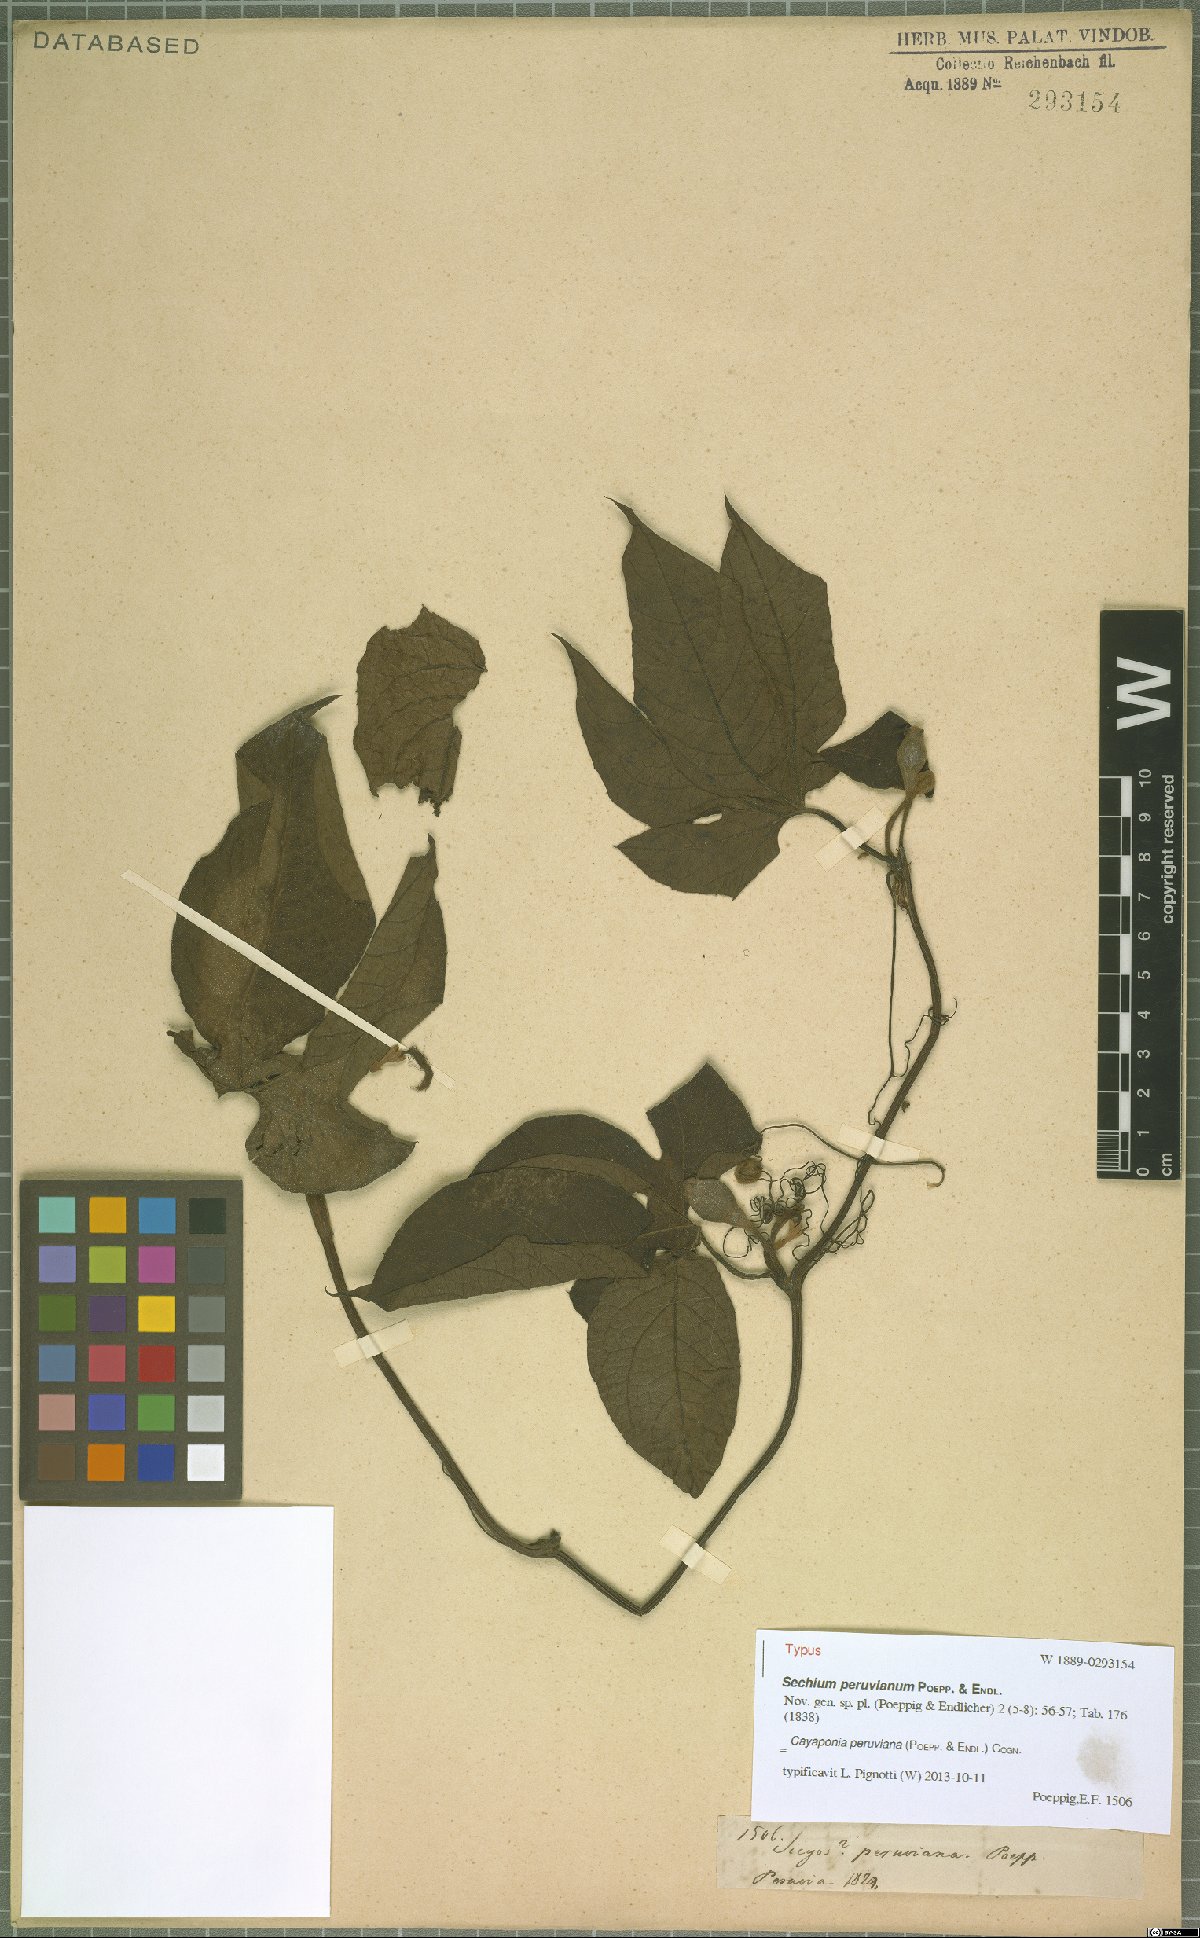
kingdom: Plantae
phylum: Tracheophyta
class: Magnoliopsida
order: Cucurbitales
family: Cucurbitaceae
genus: Cayaponia
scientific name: Cayaponia peruviana
